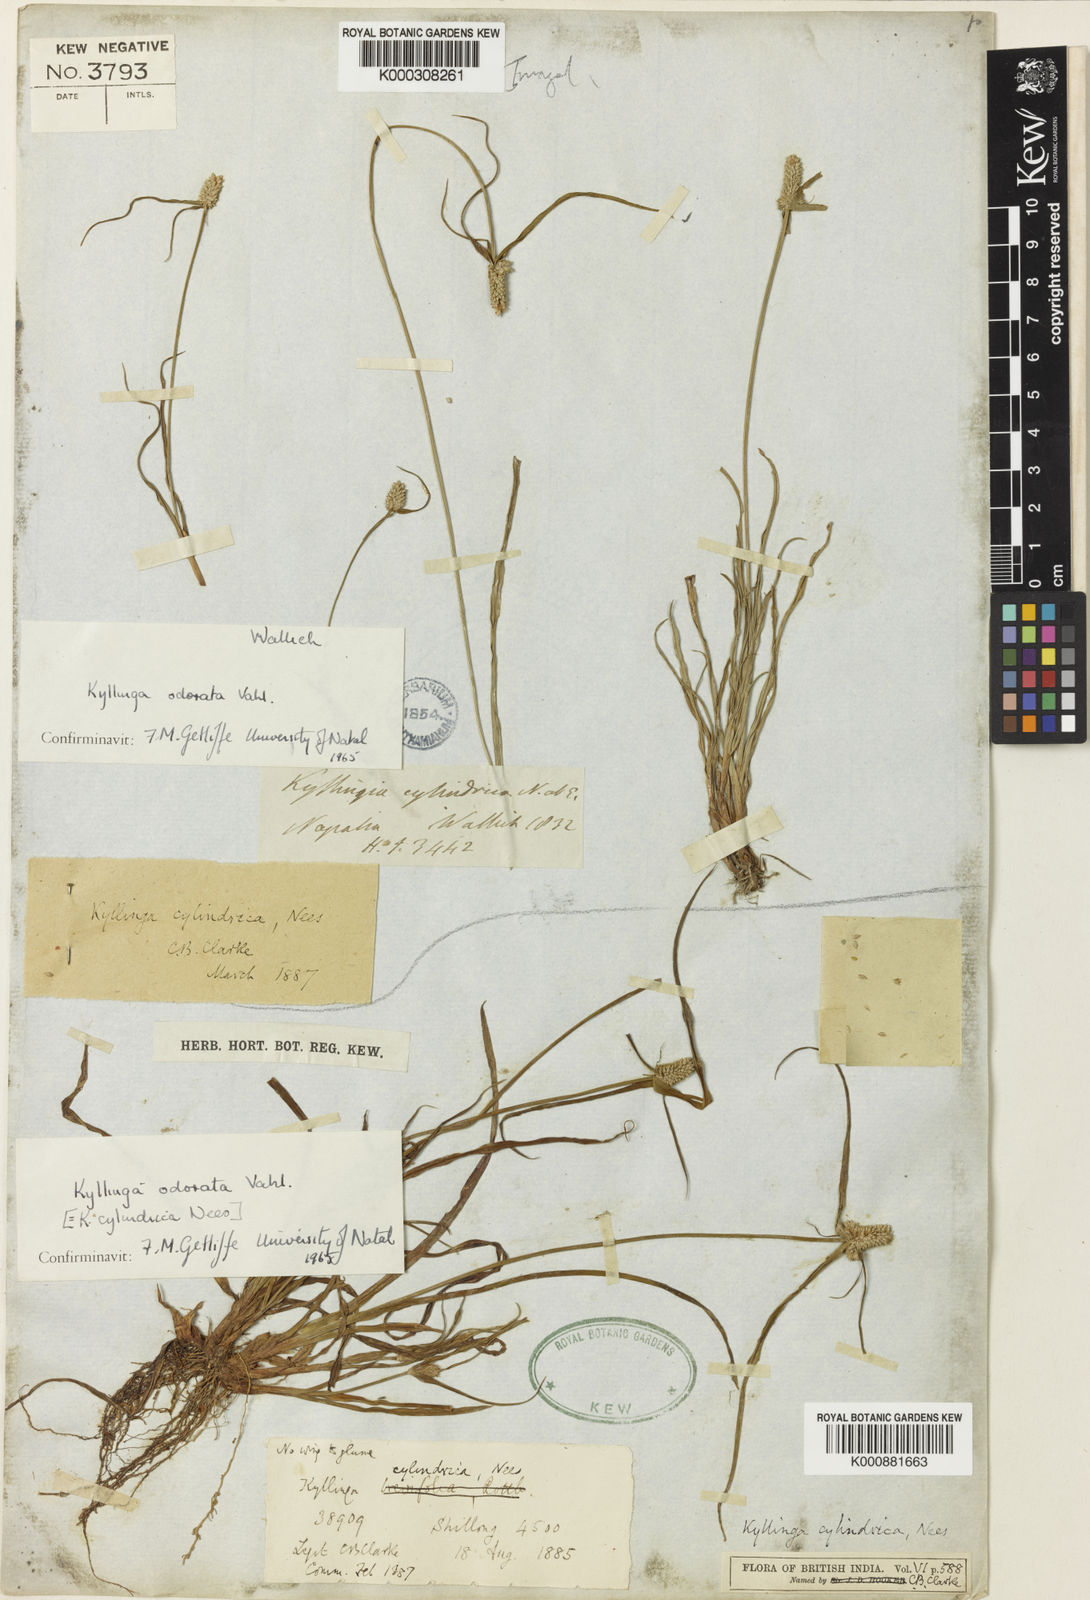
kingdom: Plantae
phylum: Tracheophyta
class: Liliopsida
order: Poales
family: Cyperaceae
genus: Cyperus
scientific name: Cyperus sesquiflorus
